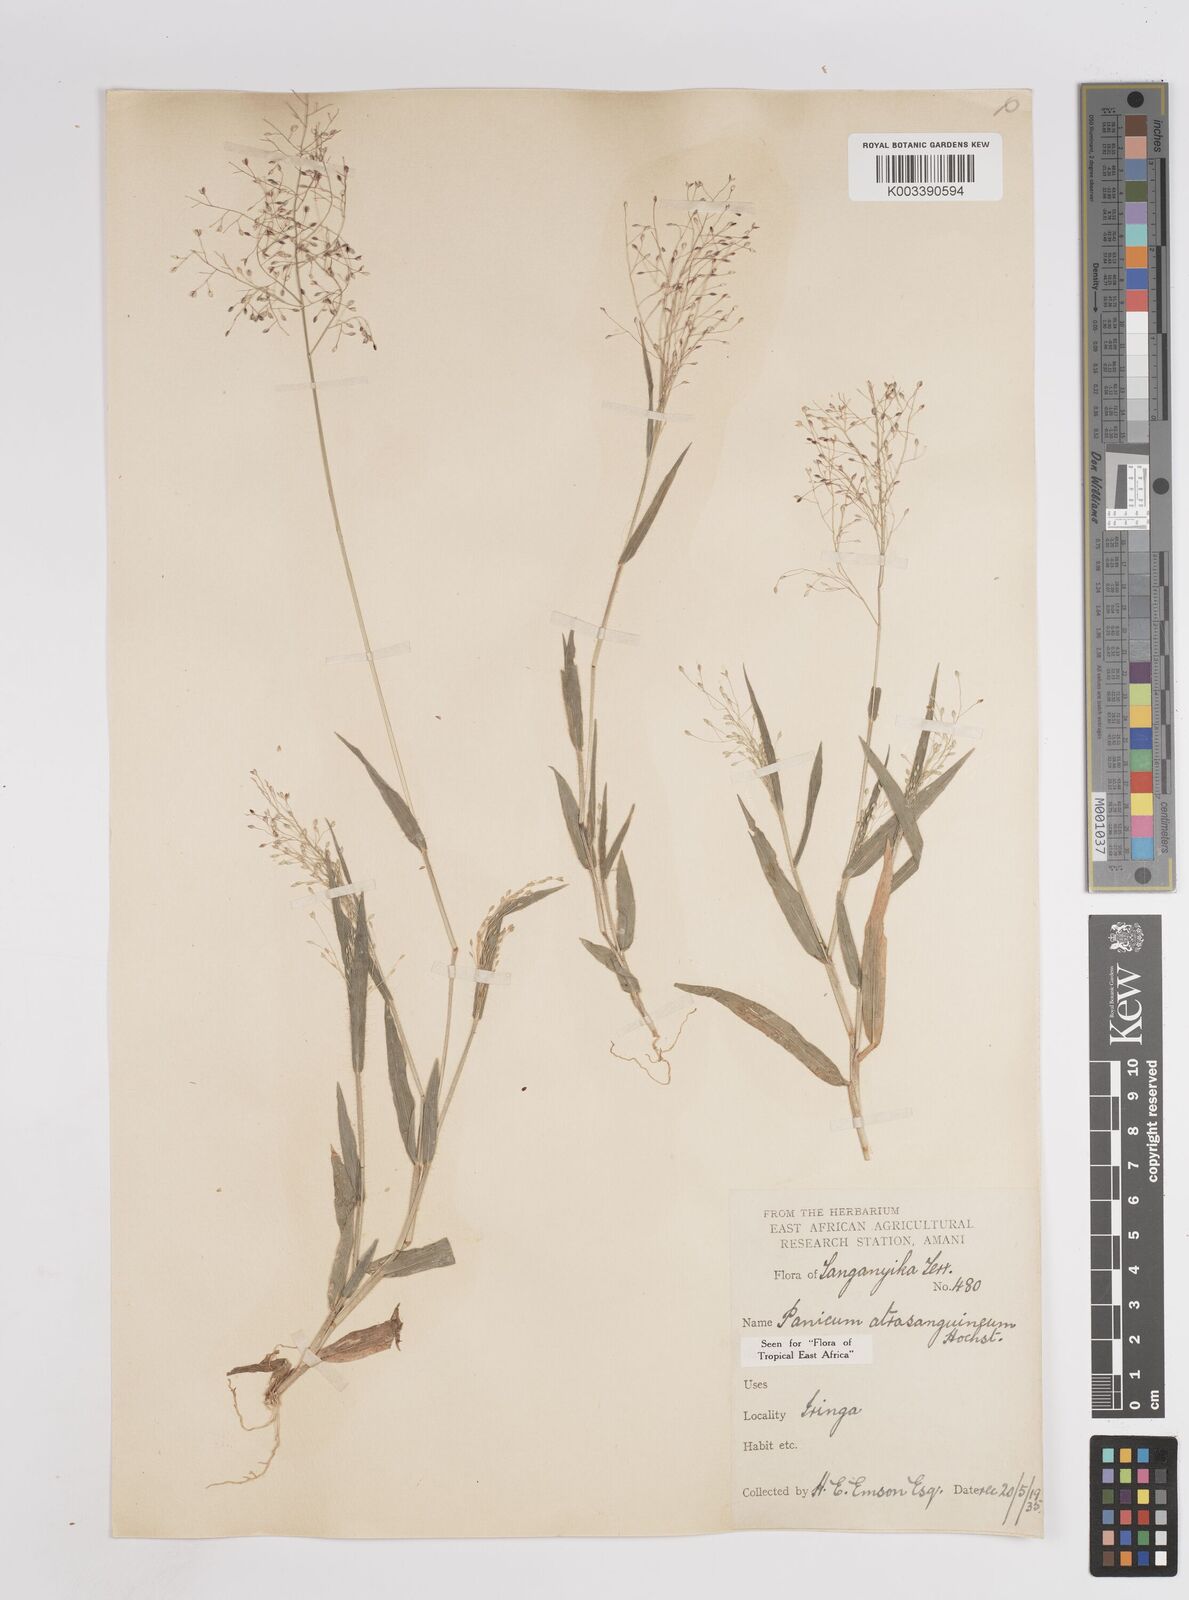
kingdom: Plantae
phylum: Tracheophyta
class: Liliopsida
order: Poales
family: Poaceae
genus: Panicum
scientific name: Panicum atrosanguineum
